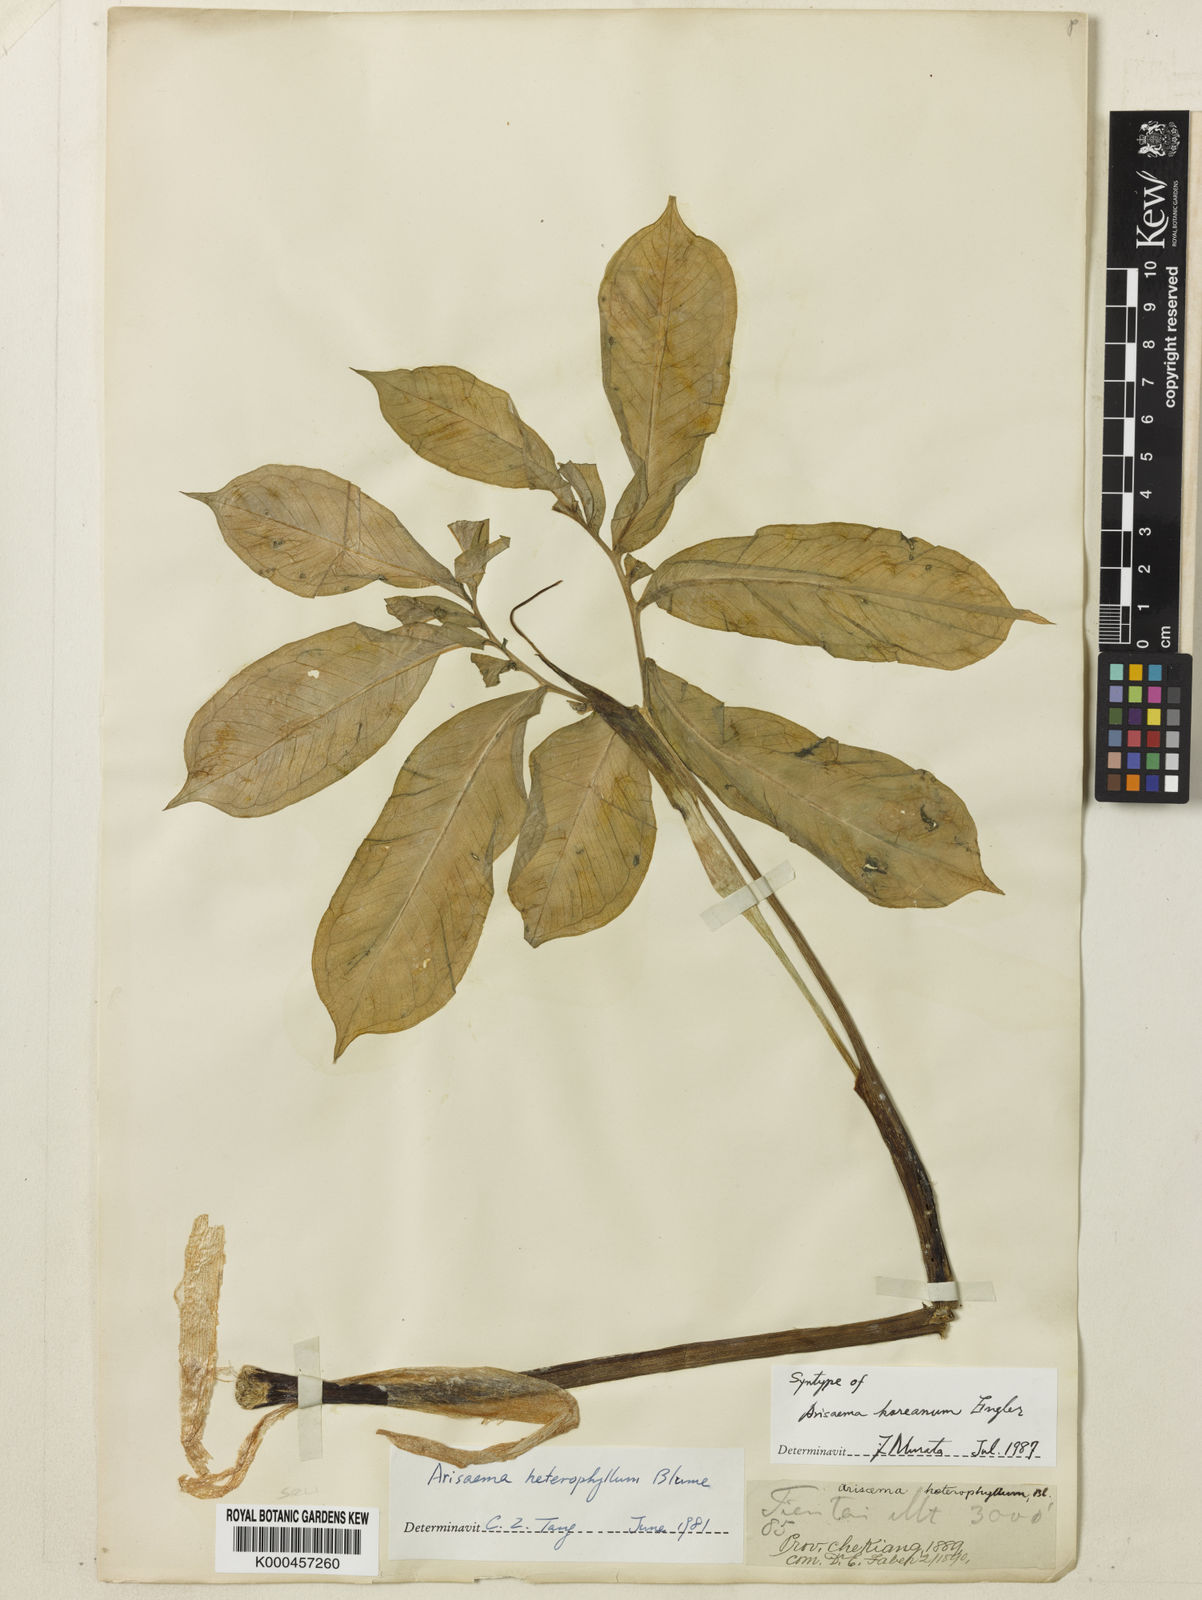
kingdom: Plantae
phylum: Tracheophyta
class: Liliopsida
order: Alismatales
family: Araceae
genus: Arisaema
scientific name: Arisaema heterophyllum
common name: Dancing crane cobra lily
